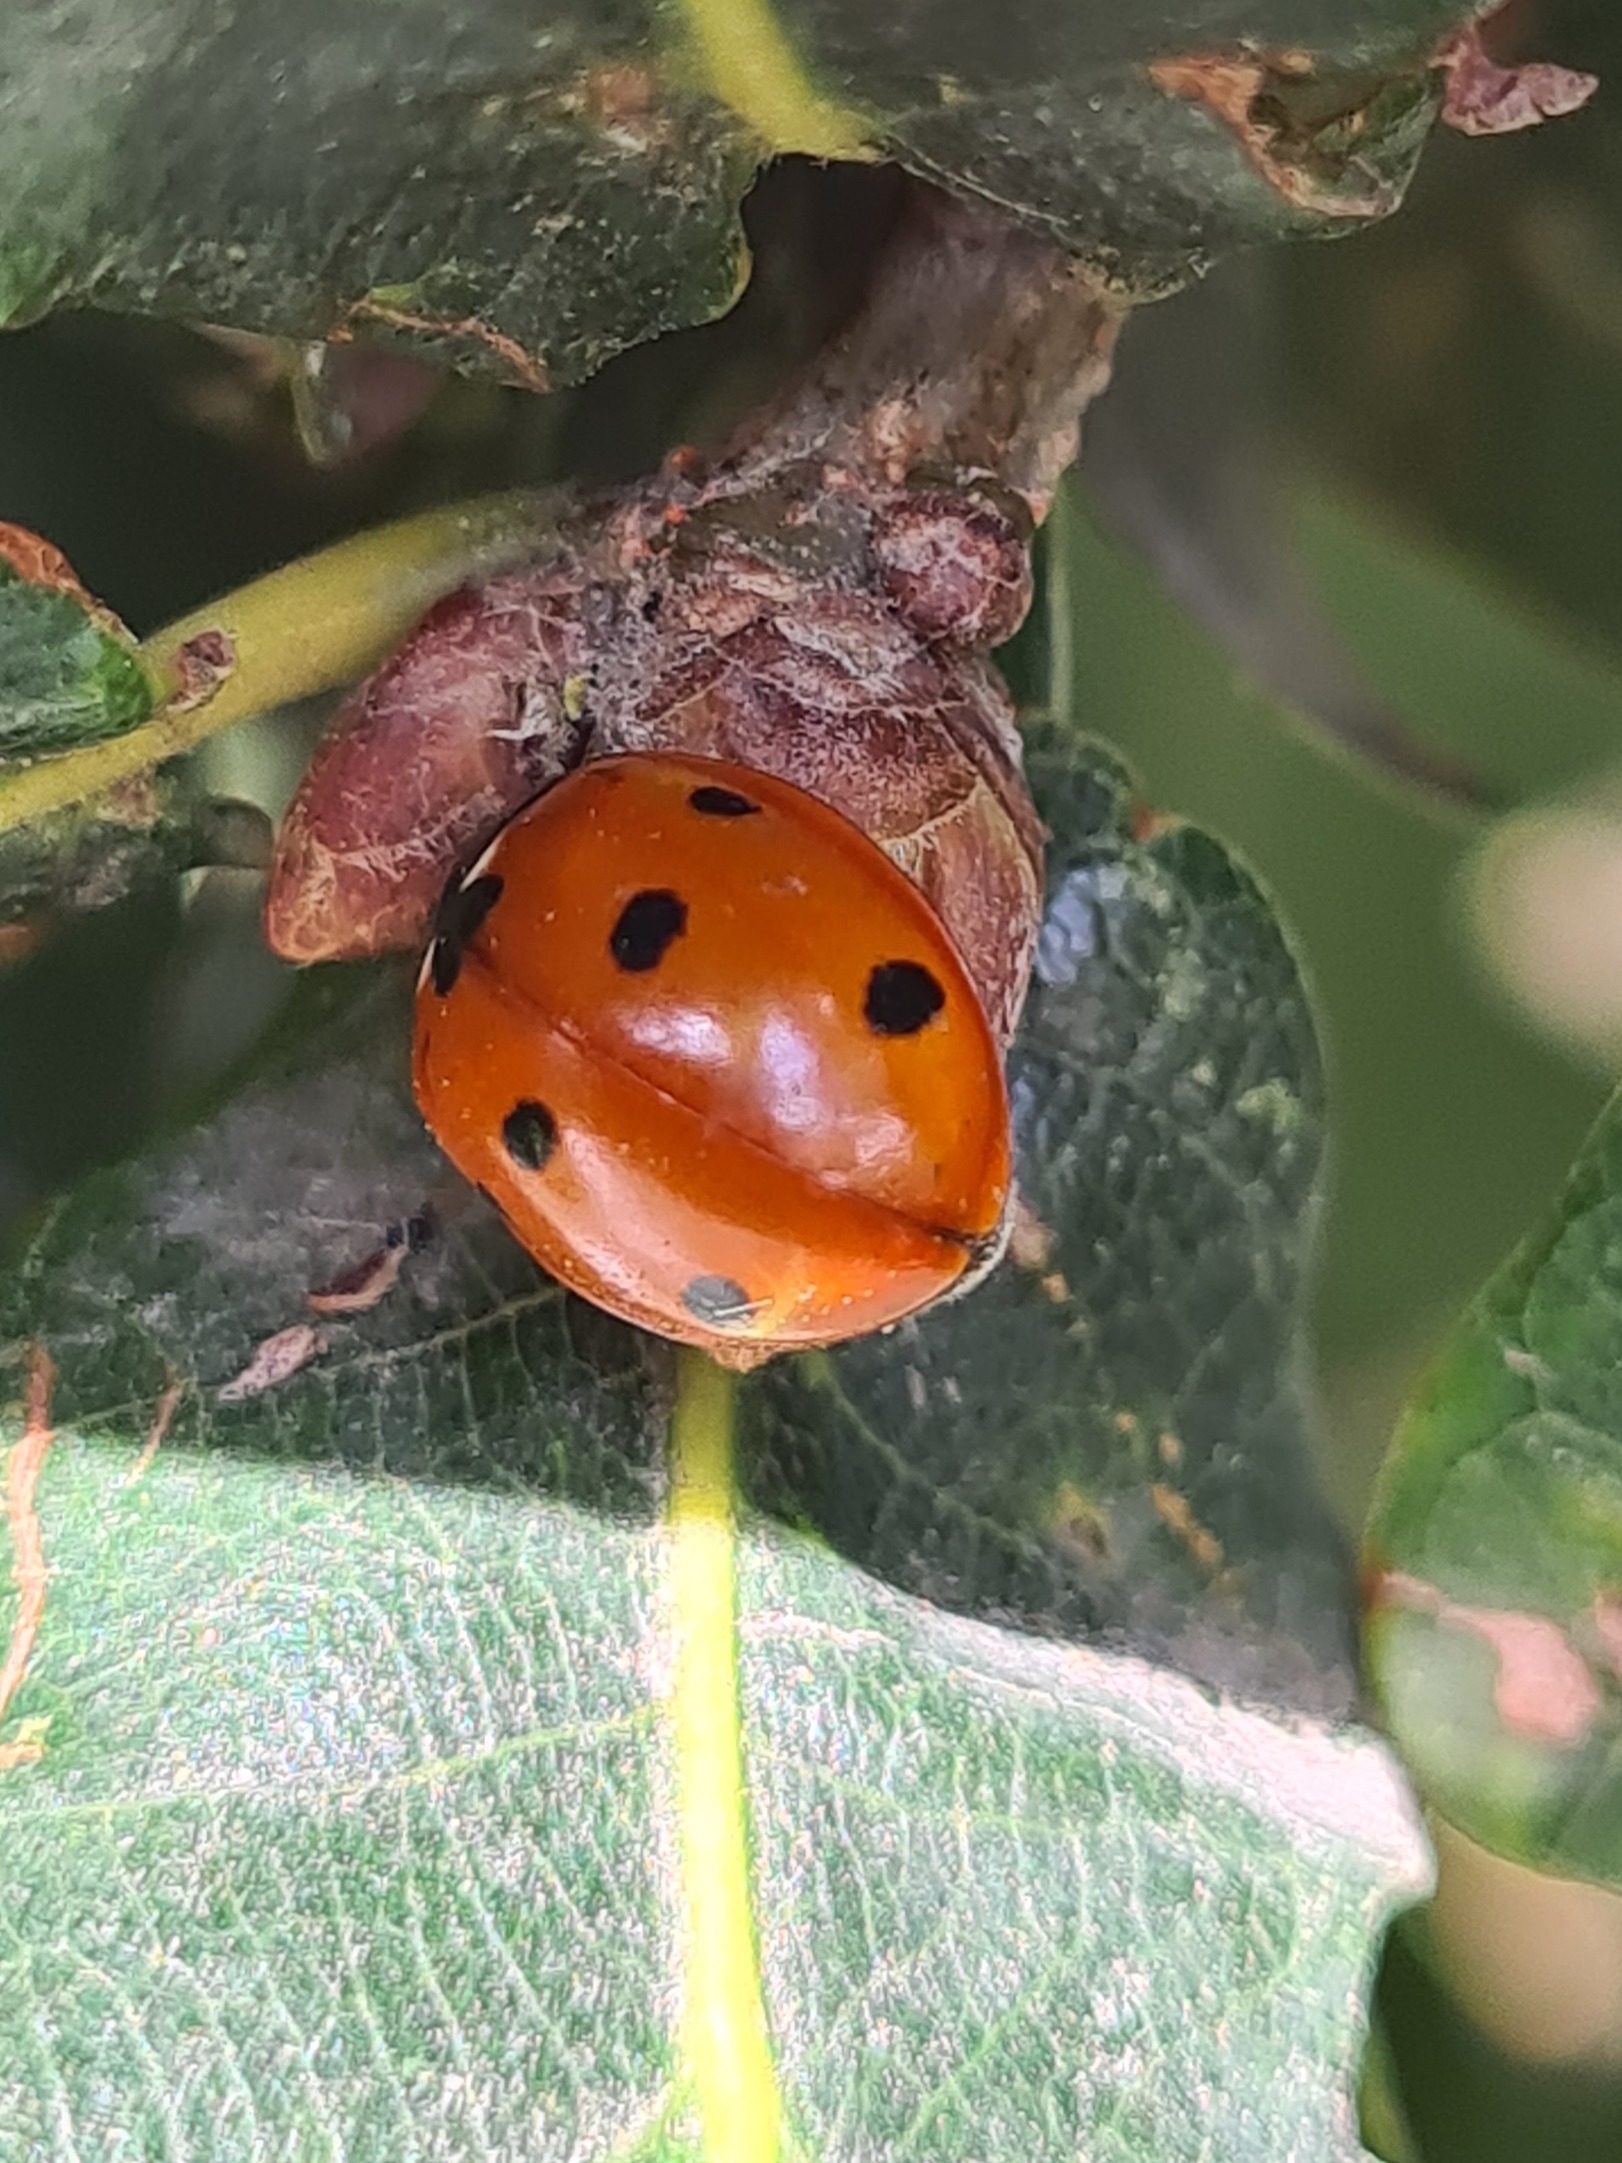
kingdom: Animalia
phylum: Arthropoda
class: Insecta
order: Coleoptera
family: Coccinellidae
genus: Coccinella
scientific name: Coccinella septempunctata
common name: Syvplettet mariehøne
